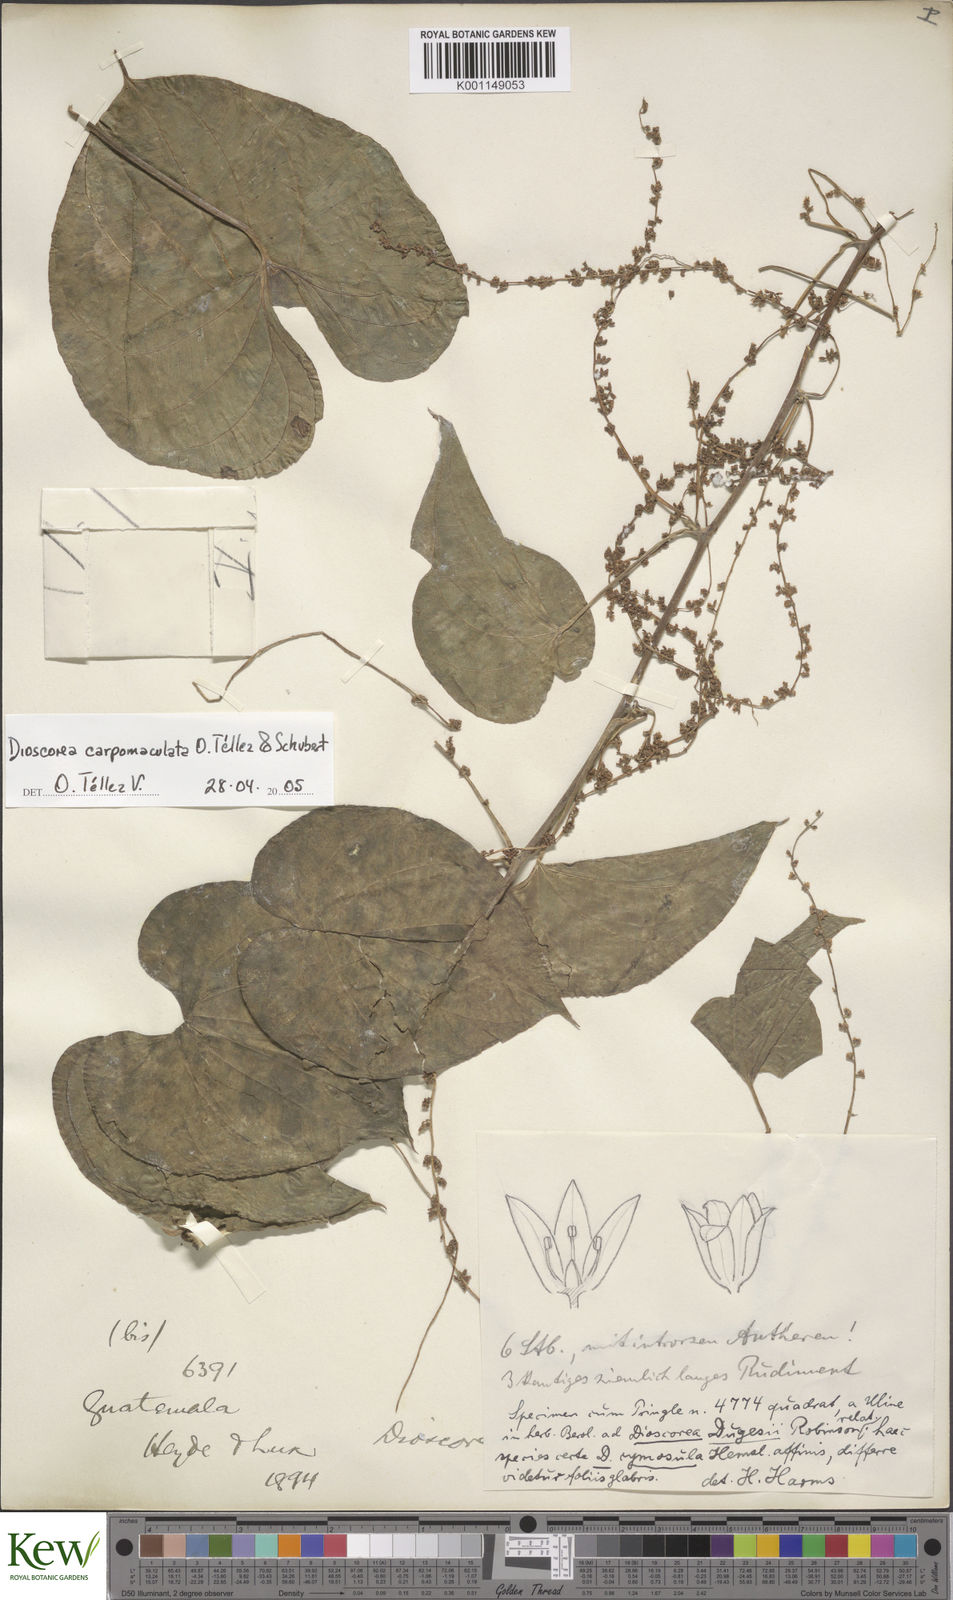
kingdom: Plantae
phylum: Tracheophyta
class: Liliopsida
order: Dioscoreales
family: Dioscoreaceae
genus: Dioscorea
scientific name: Dioscorea
